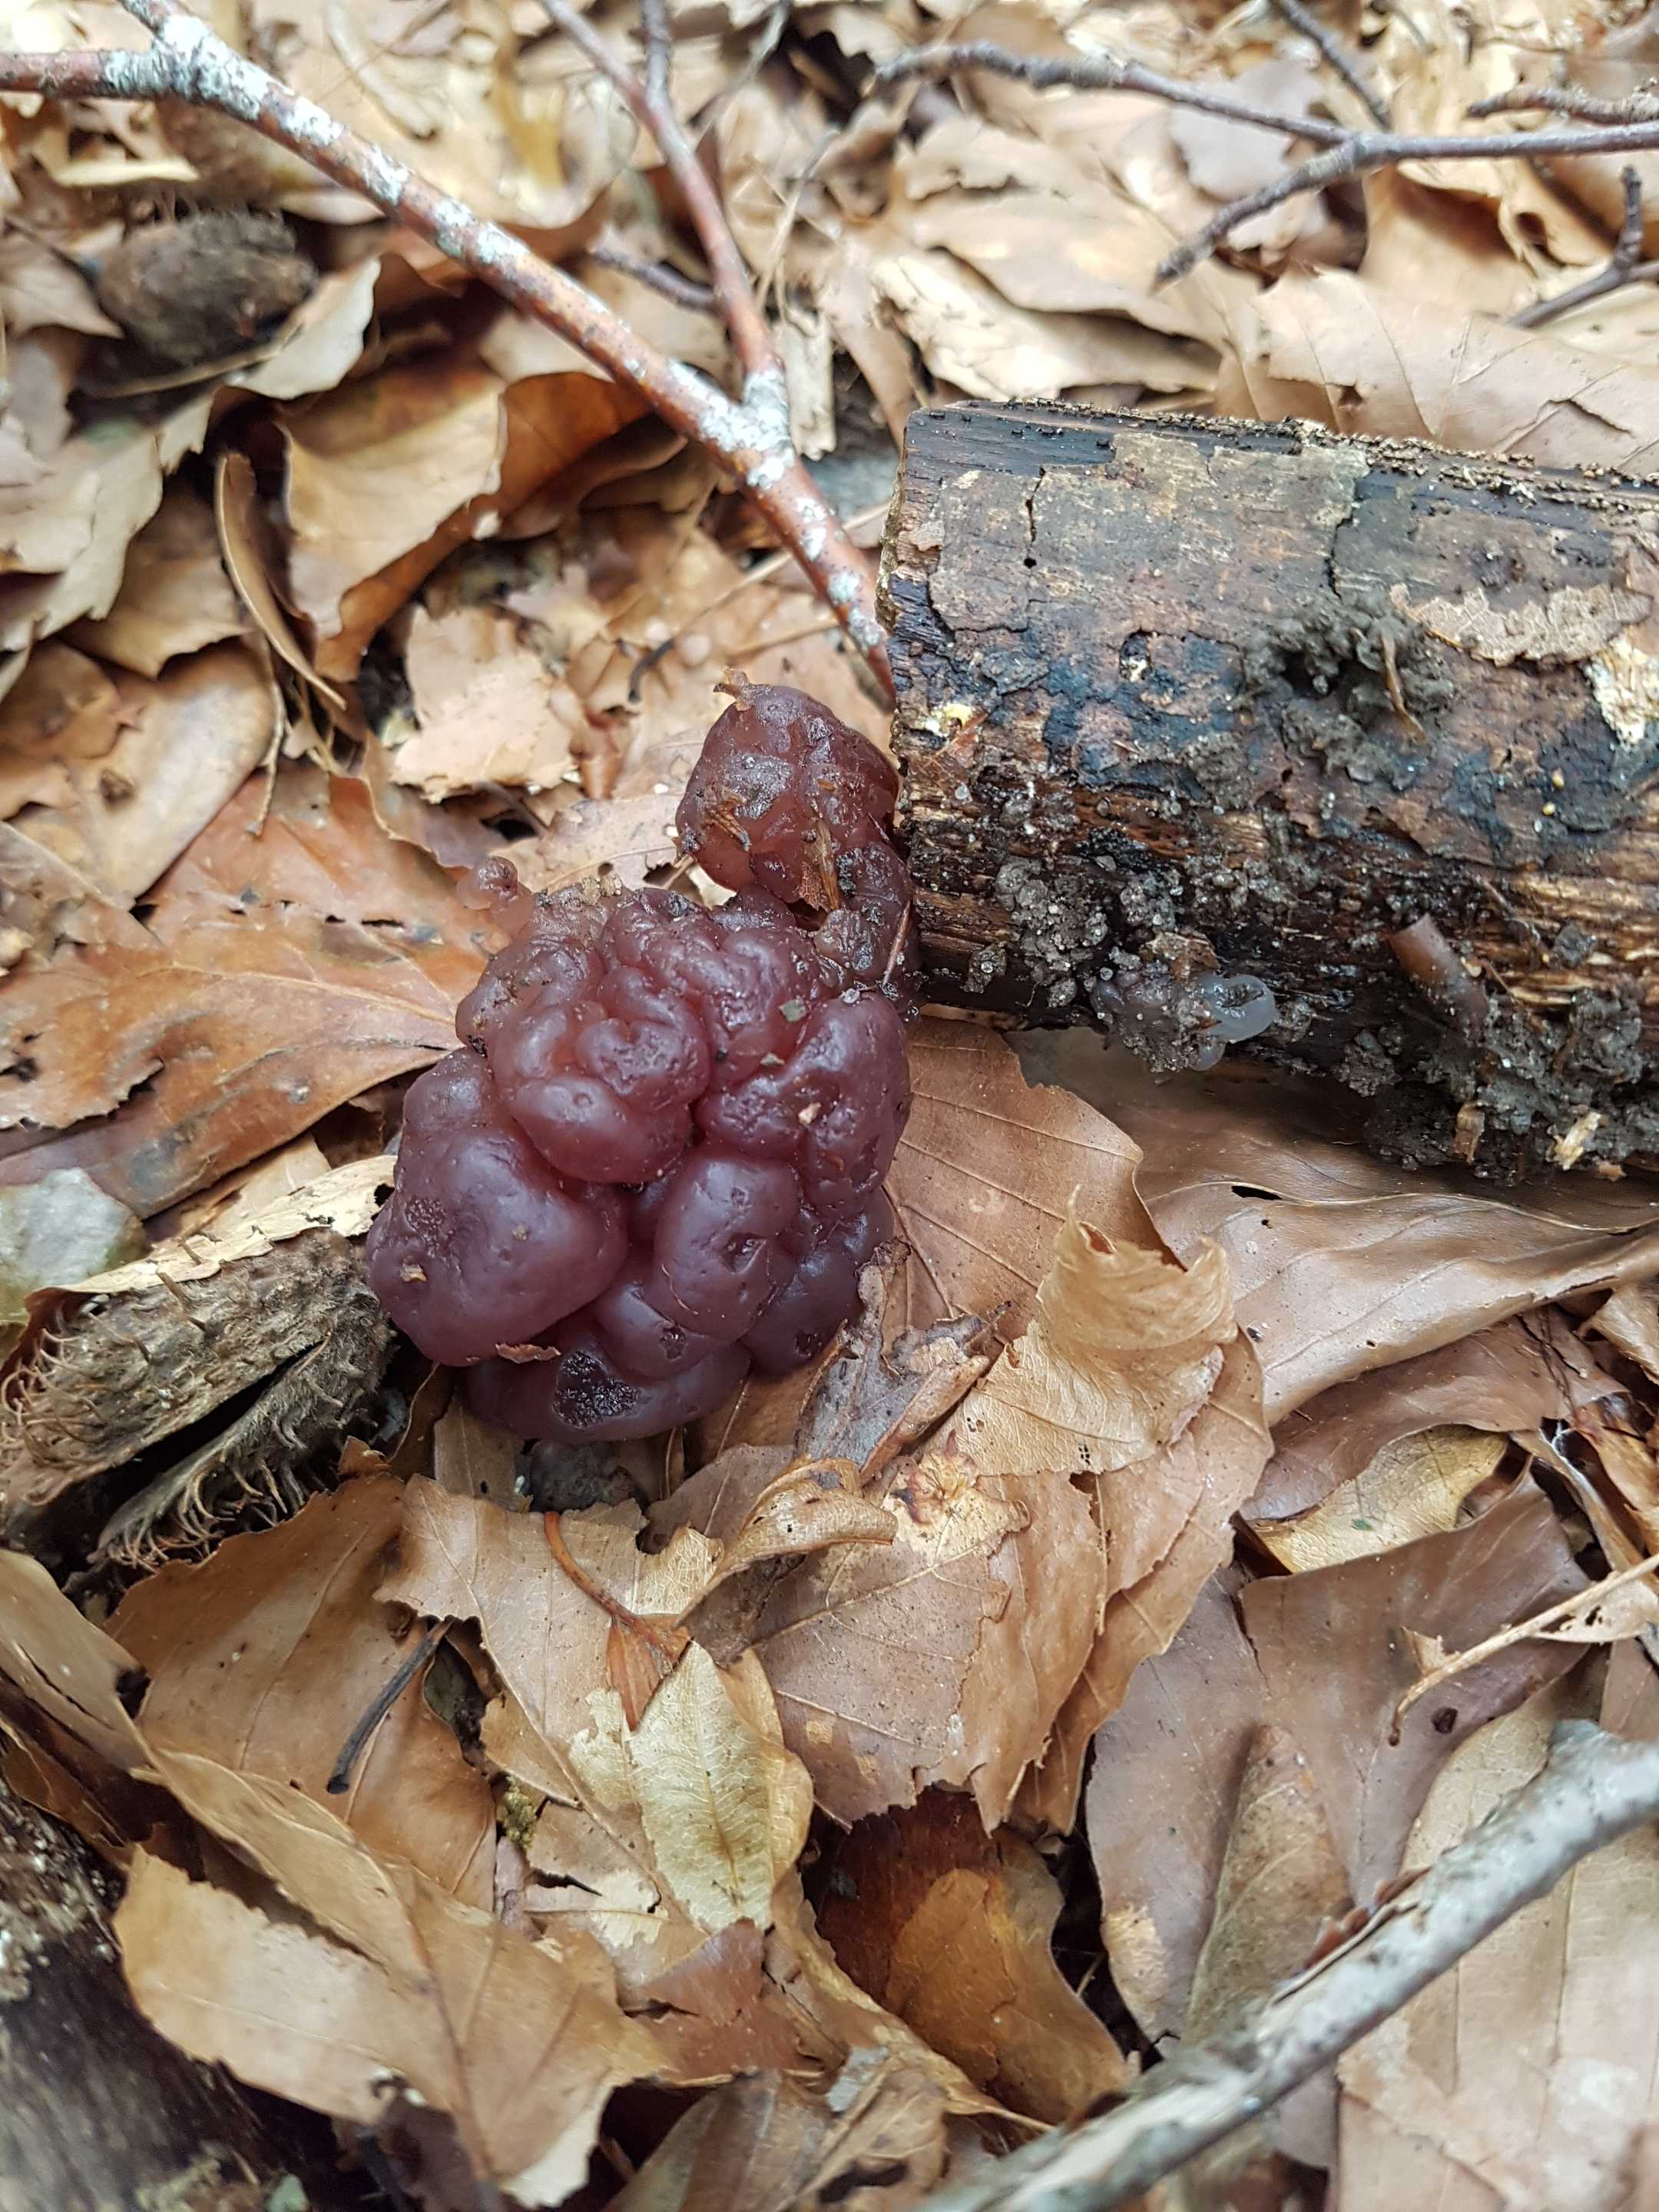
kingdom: Fungi
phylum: Ascomycota
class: Leotiomycetes
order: Helotiales
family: Gelatinodiscaceae
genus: Ascotremella
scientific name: Ascotremella faginea
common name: hjerne-bævreskive
